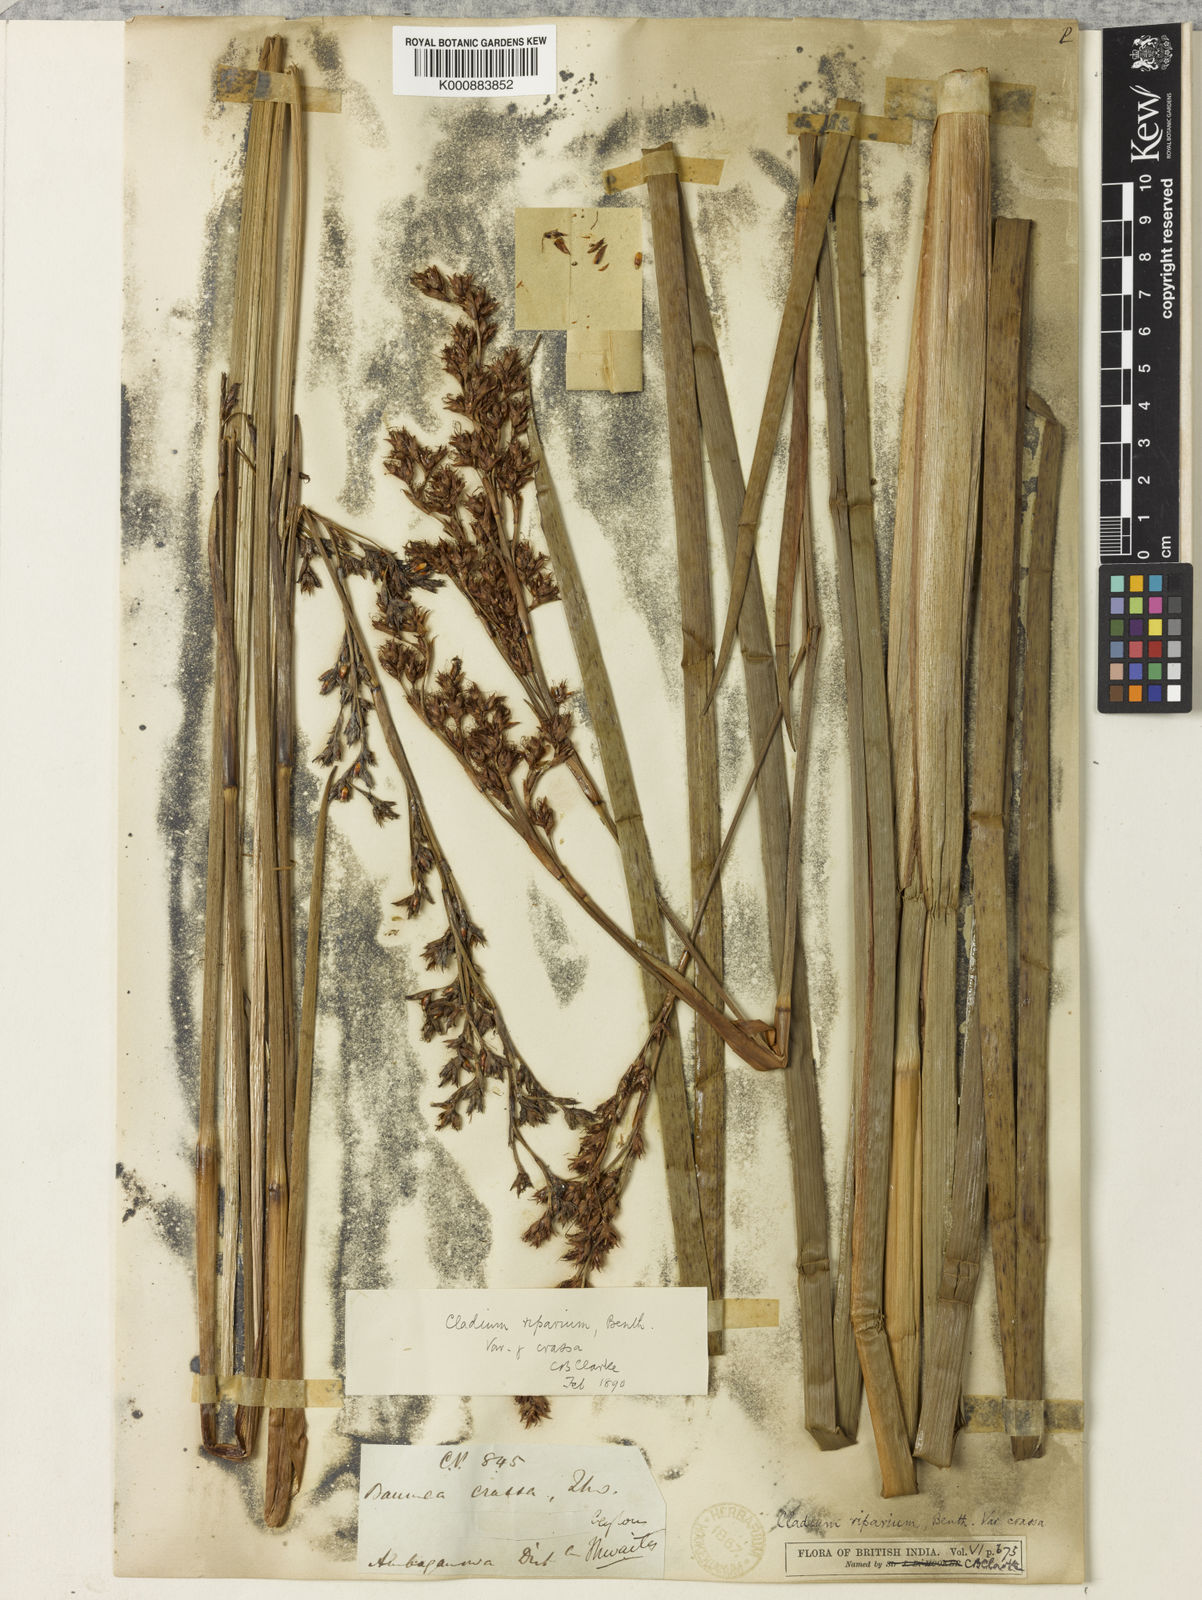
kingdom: Plantae
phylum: Tracheophyta
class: Liliopsida
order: Poales
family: Cyperaceae
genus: Machaerina
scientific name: Machaerina rubiginosa
